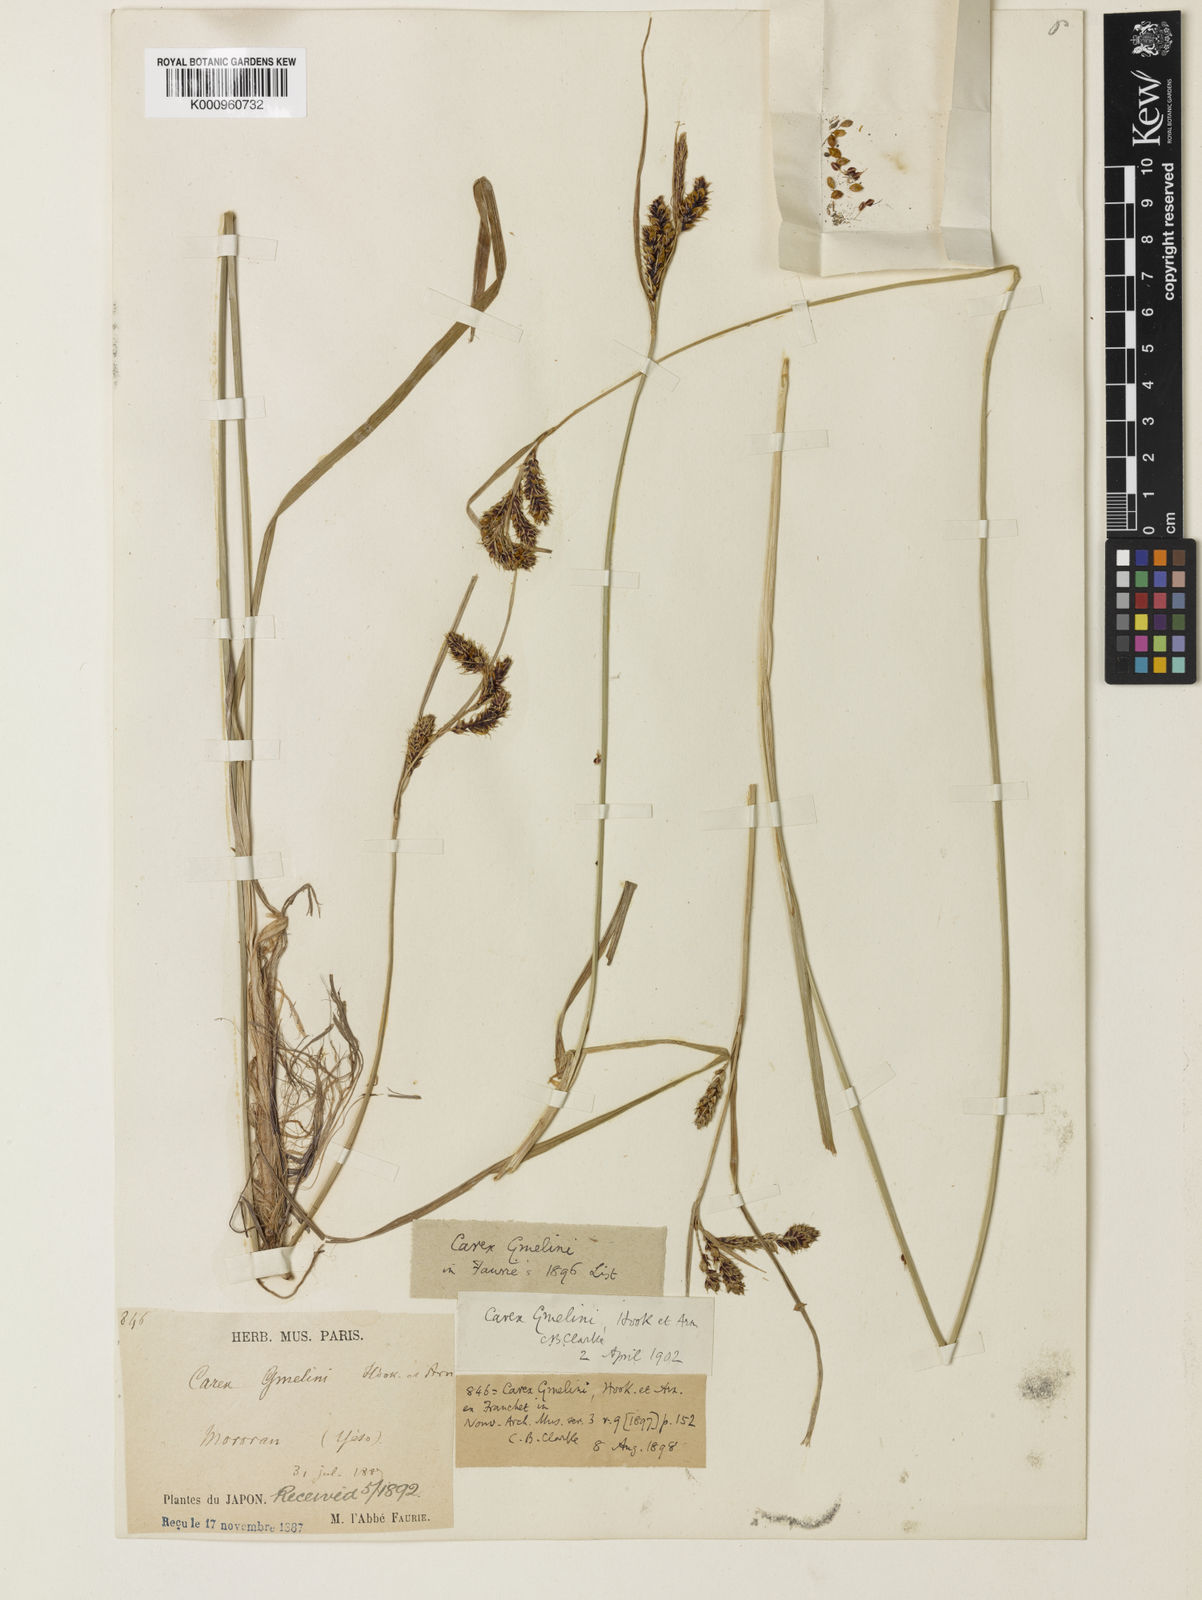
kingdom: Plantae
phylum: Tracheophyta
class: Liliopsida
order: Poales
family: Cyperaceae
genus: Carex
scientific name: Carex gmelinii
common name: Gmelin's sedge
